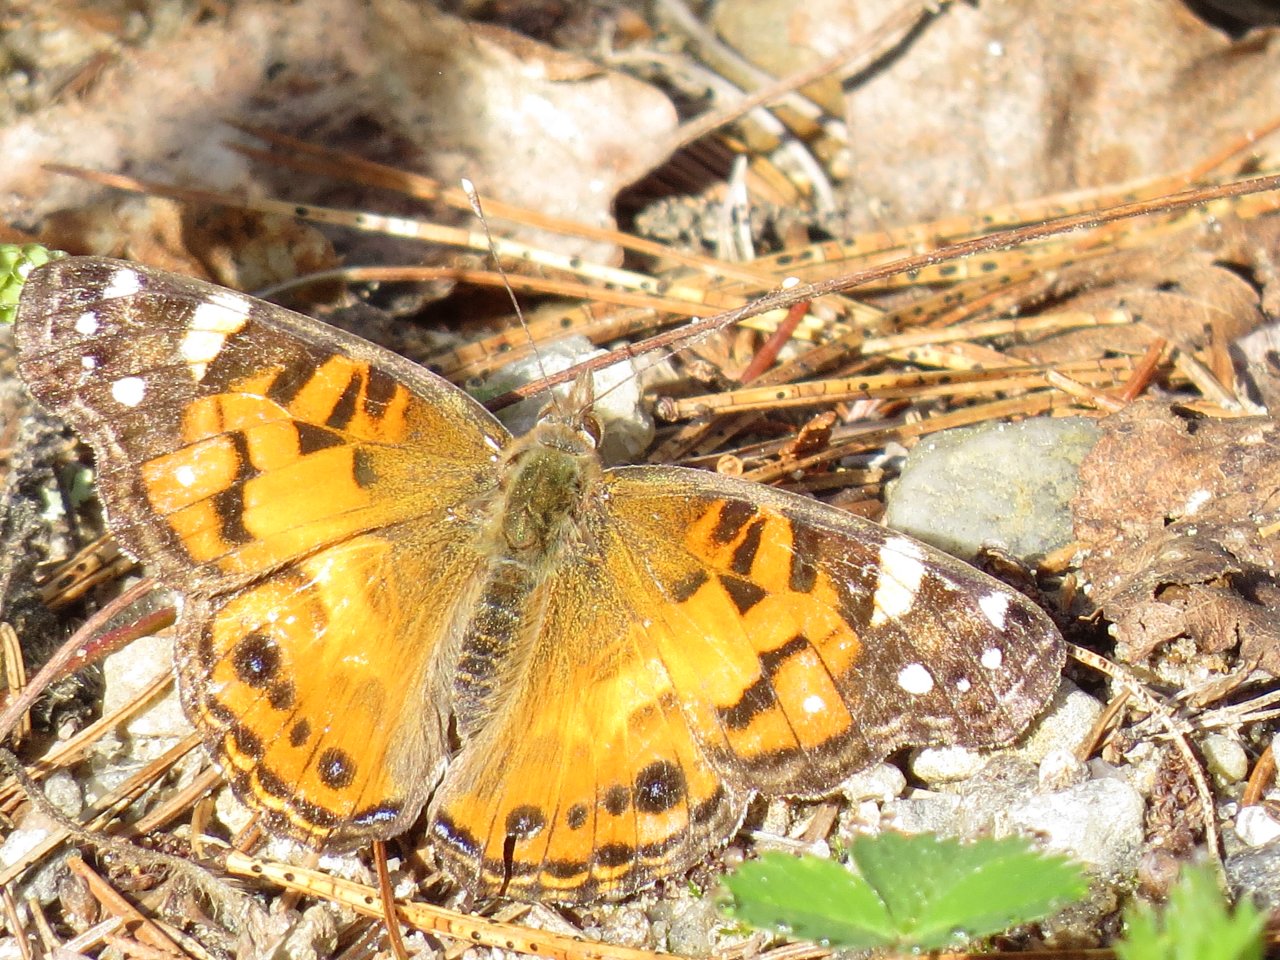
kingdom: Animalia
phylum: Arthropoda
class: Insecta
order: Lepidoptera
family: Nymphalidae
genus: Vanessa
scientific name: Vanessa virginiensis
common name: American Lady
